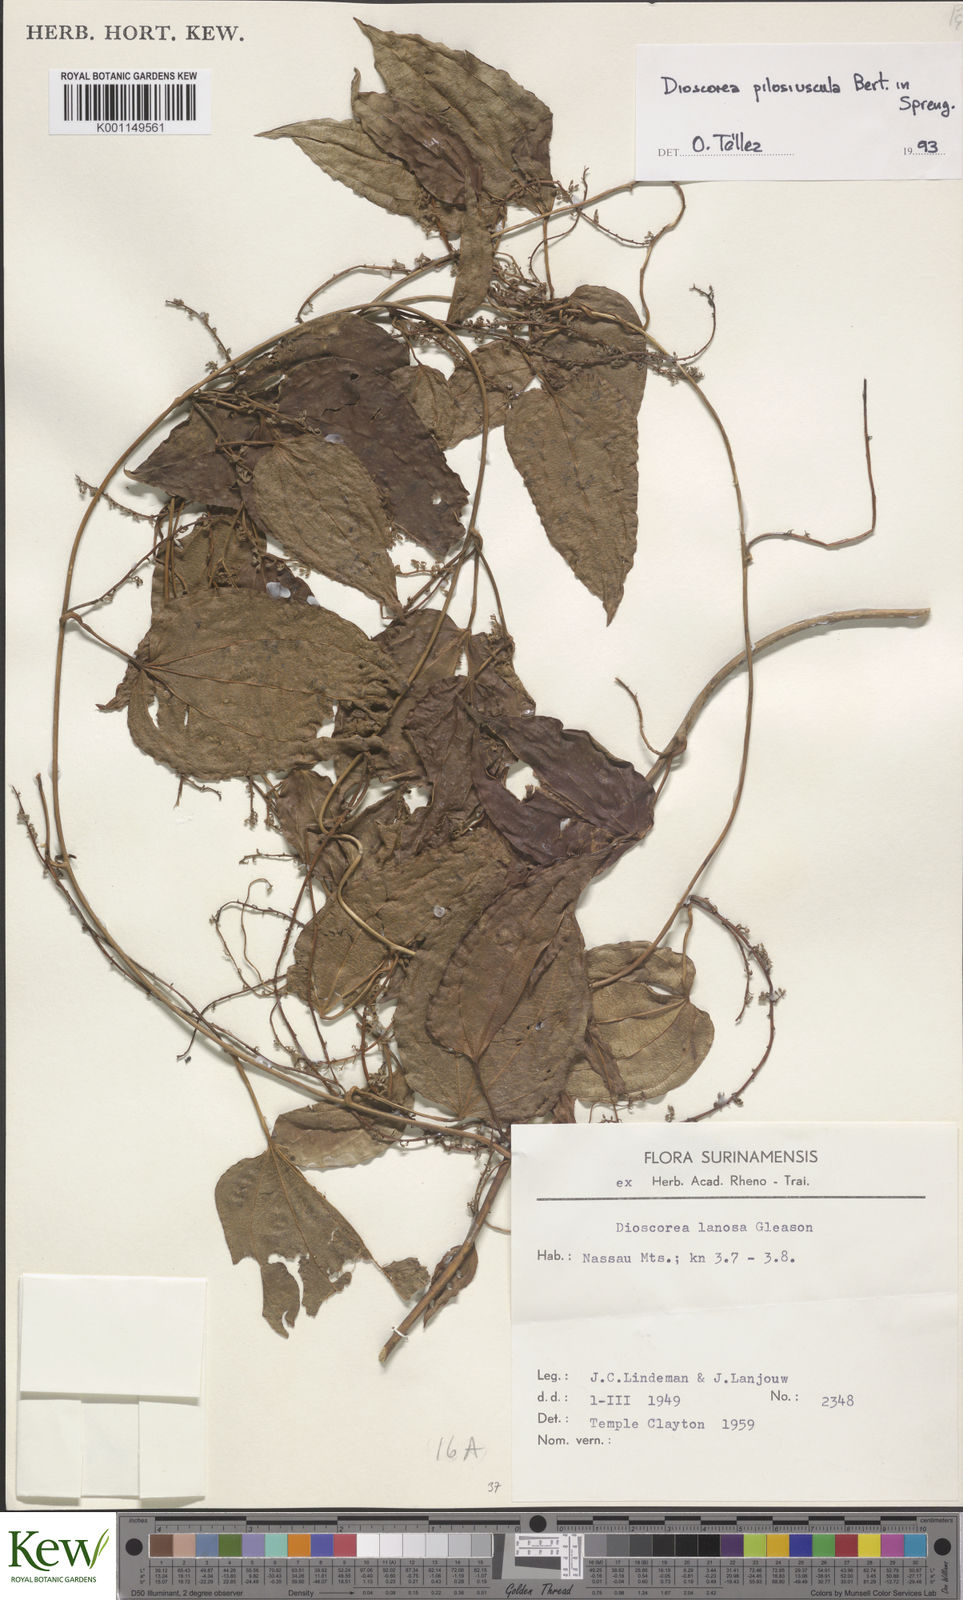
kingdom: Plantae
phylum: Tracheophyta
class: Liliopsida
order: Dioscoreales
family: Dioscoreaceae
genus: Dioscorea
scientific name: Dioscorea pilosiuscula
